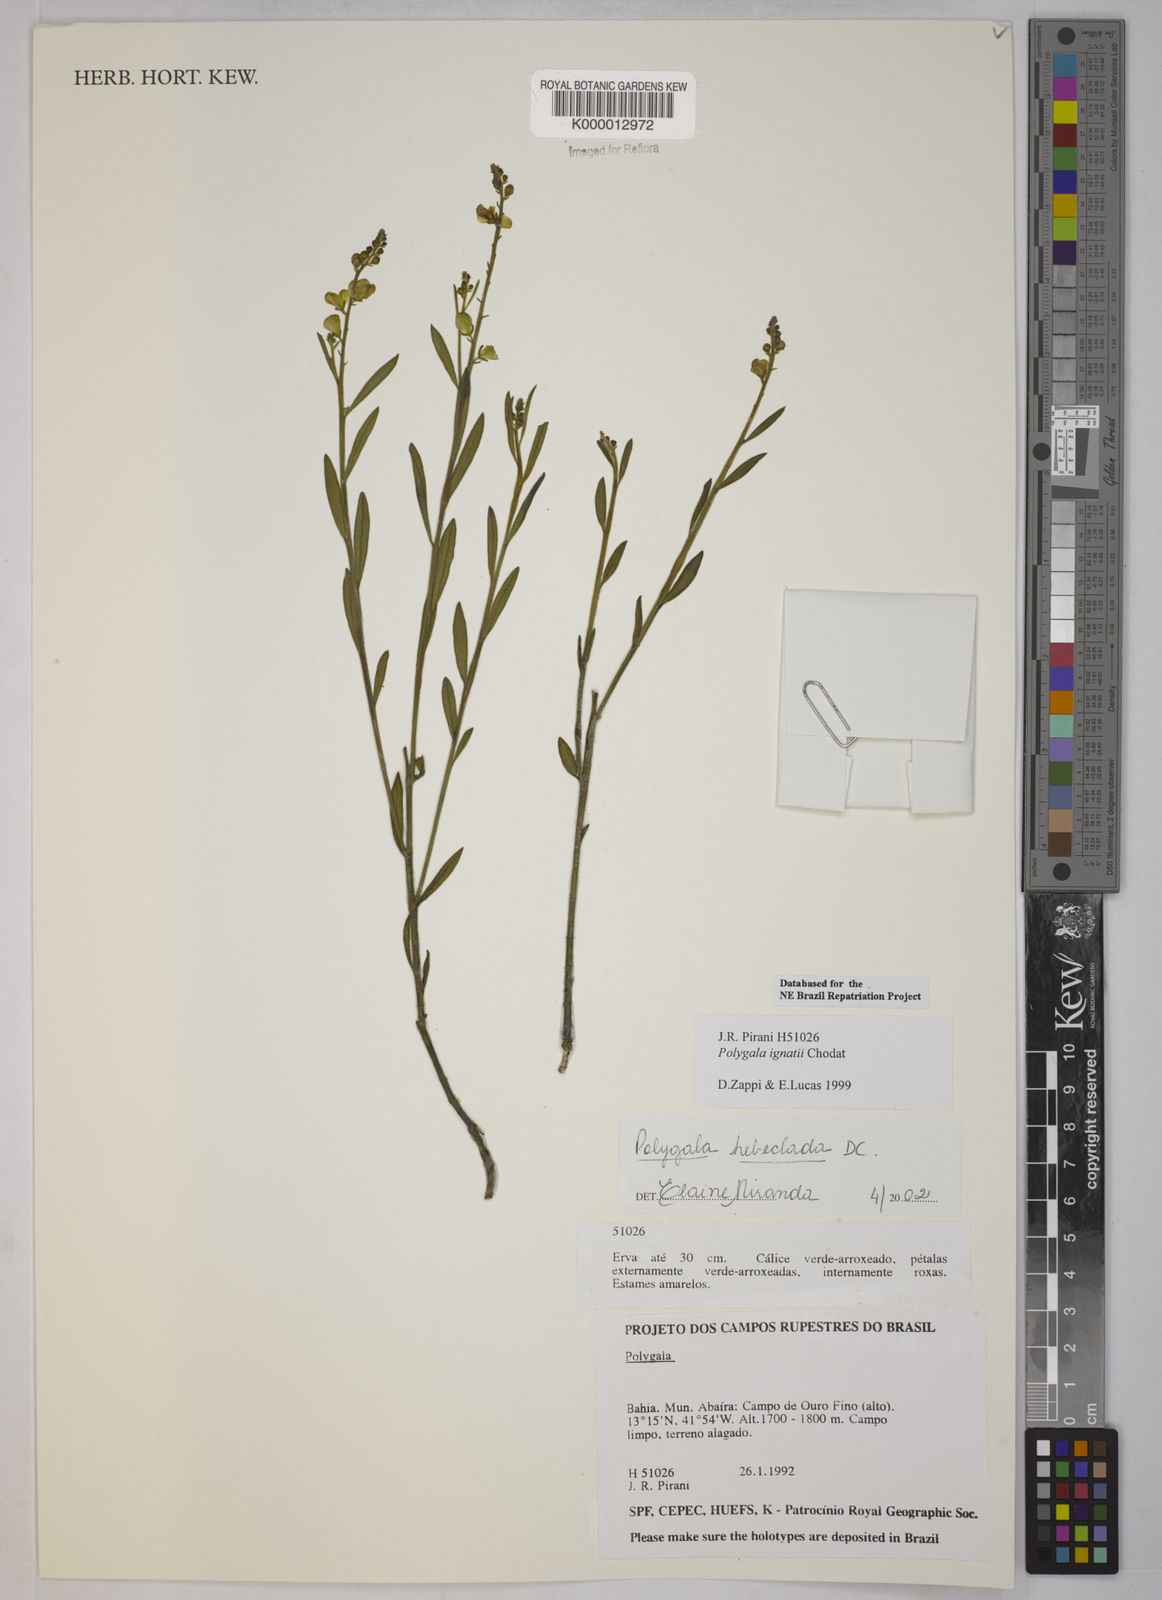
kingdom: Plantae
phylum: Tracheophyta
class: Magnoliopsida
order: Fabales
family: Polygalaceae
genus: Asemeia
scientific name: Asemeia hebeclada
